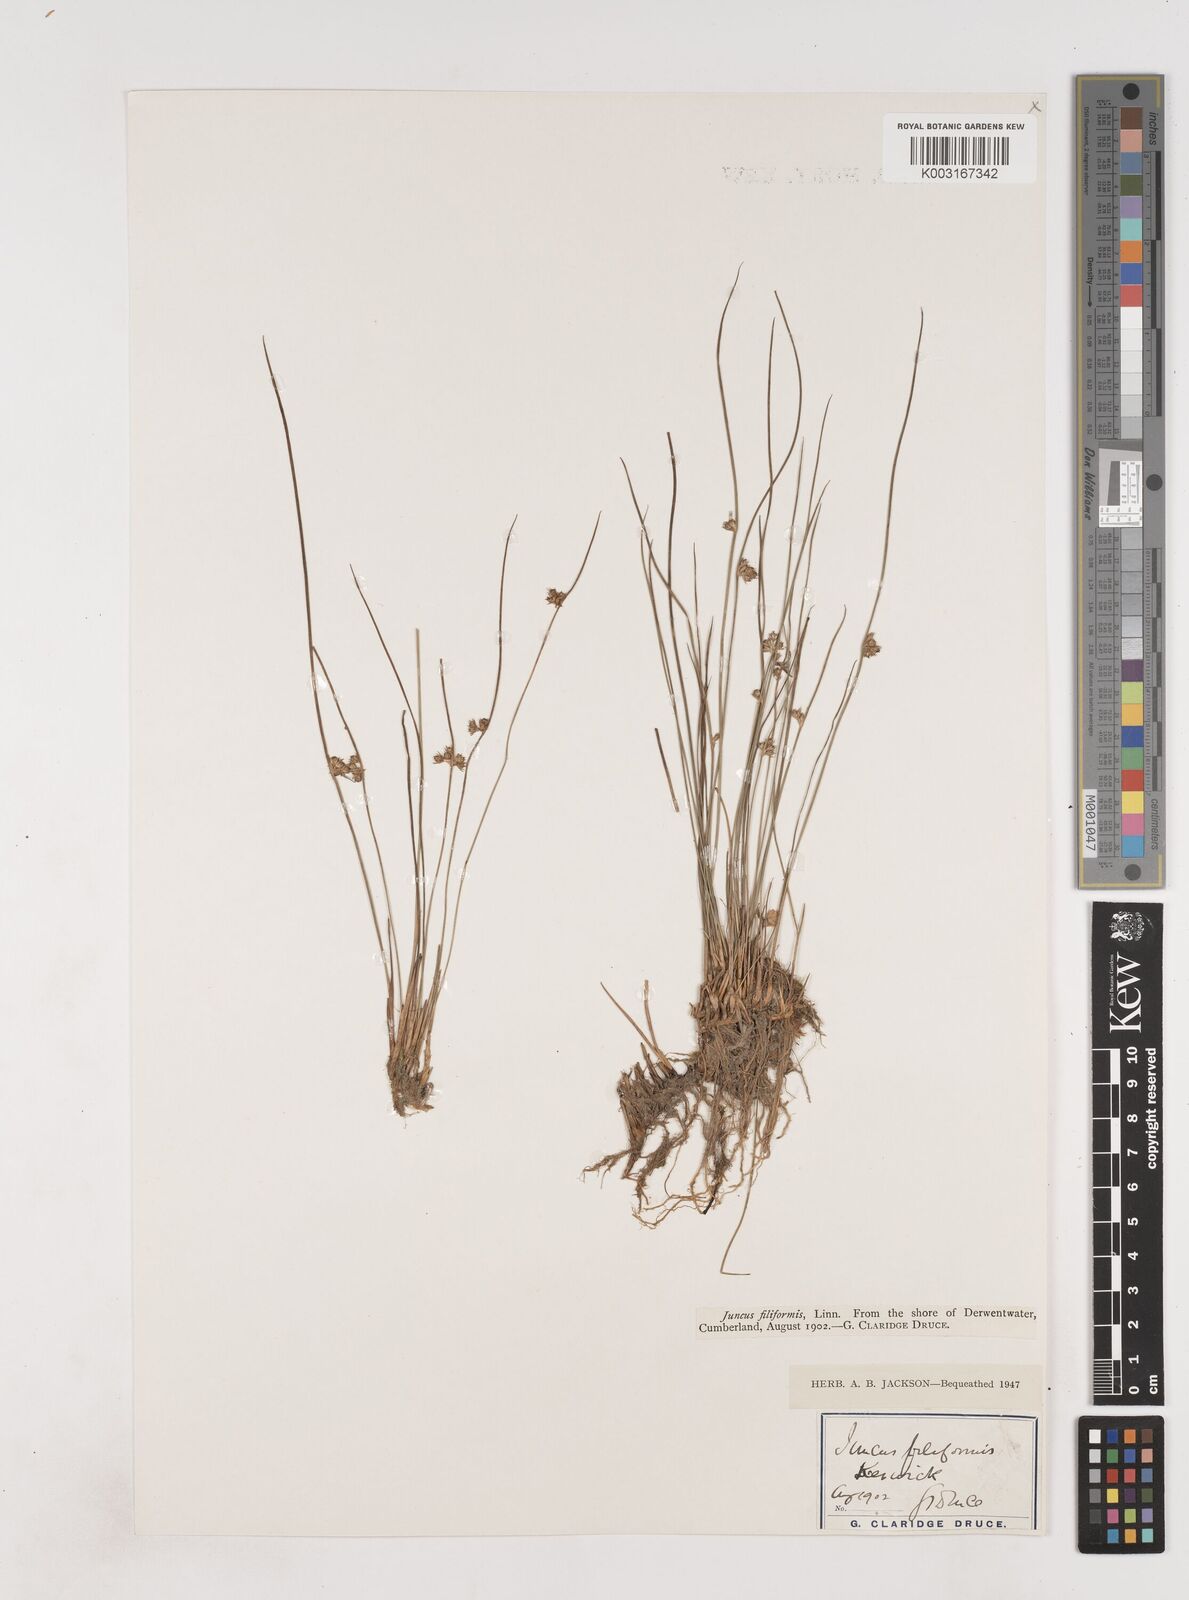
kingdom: Plantae
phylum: Tracheophyta
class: Liliopsida
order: Poales
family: Juncaceae
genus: Juncus
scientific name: Juncus filiformis
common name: Thread rush
